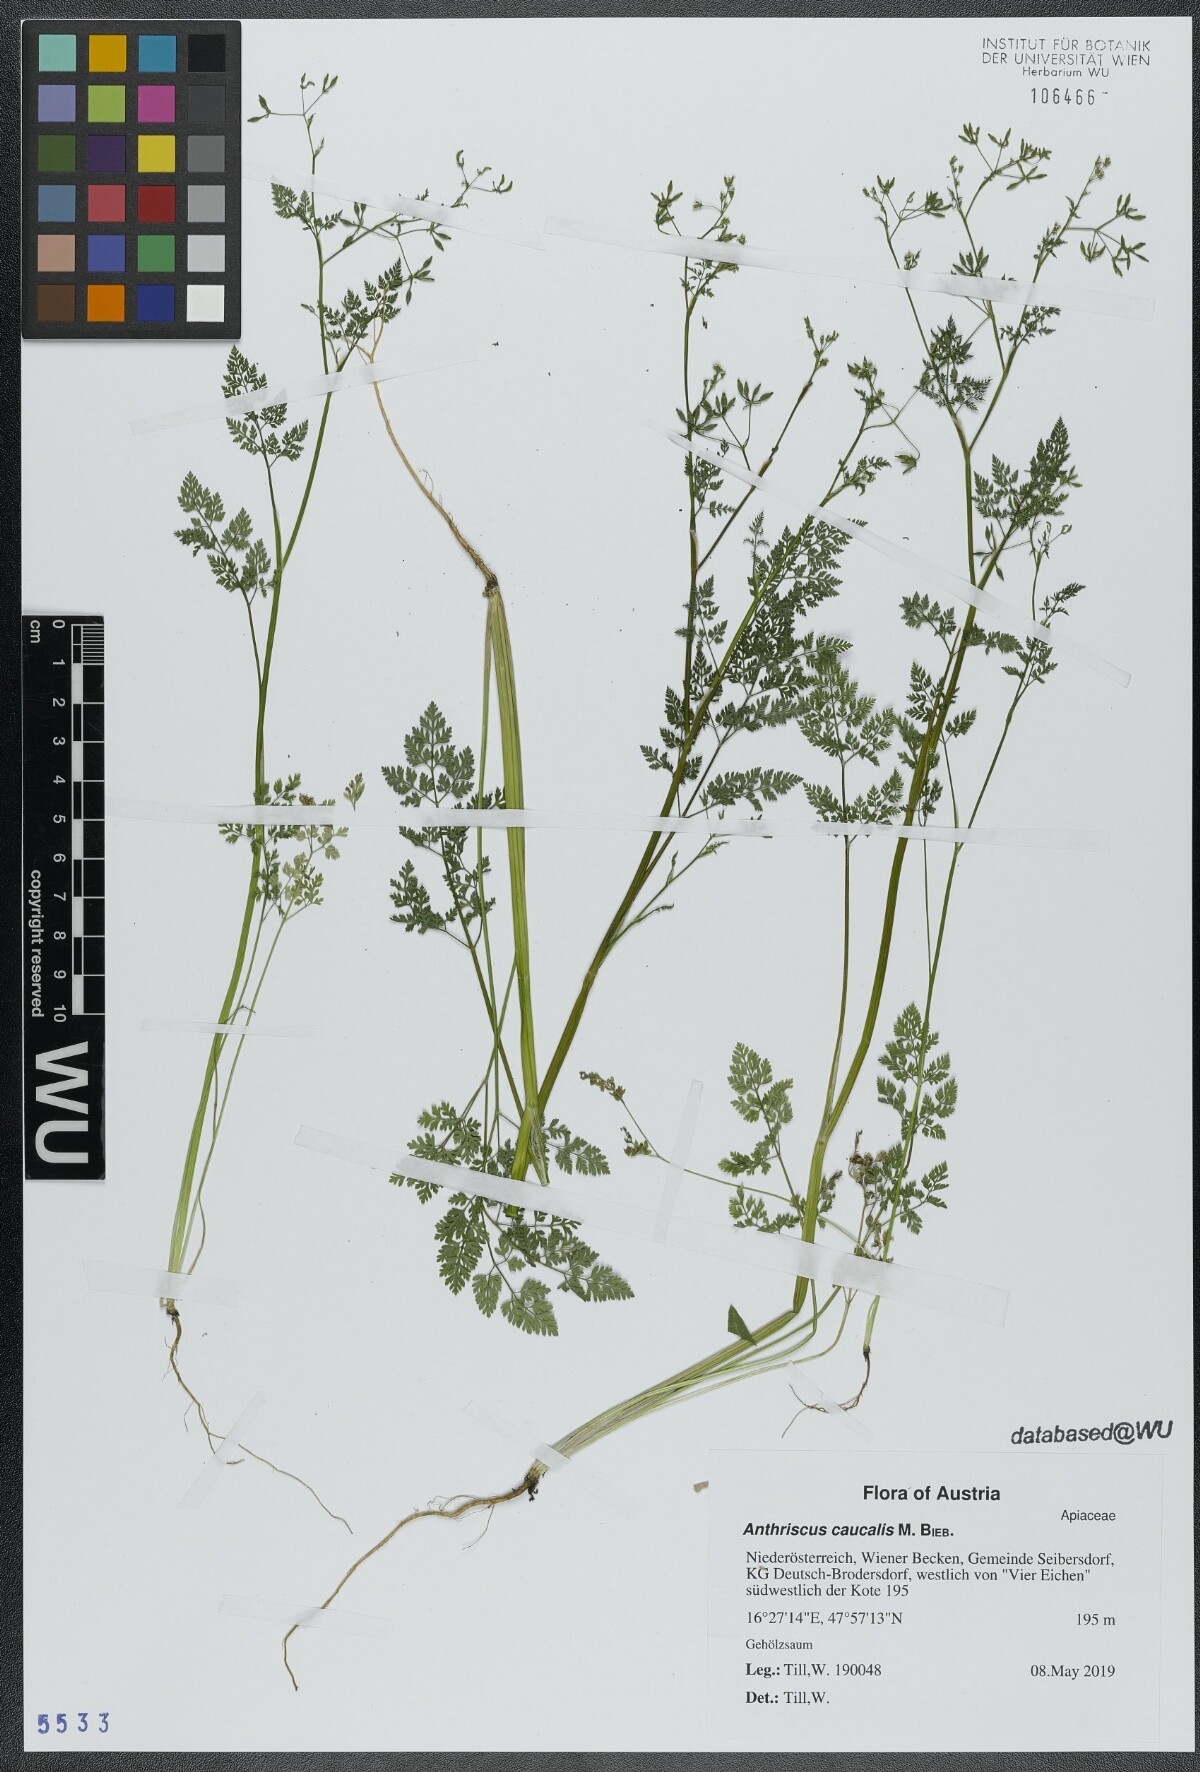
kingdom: Plantae
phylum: Tracheophyta
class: Magnoliopsida
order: Apiales
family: Apiaceae
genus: Anthriscus
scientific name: Anthriscus caucalis
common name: Bur chervil
